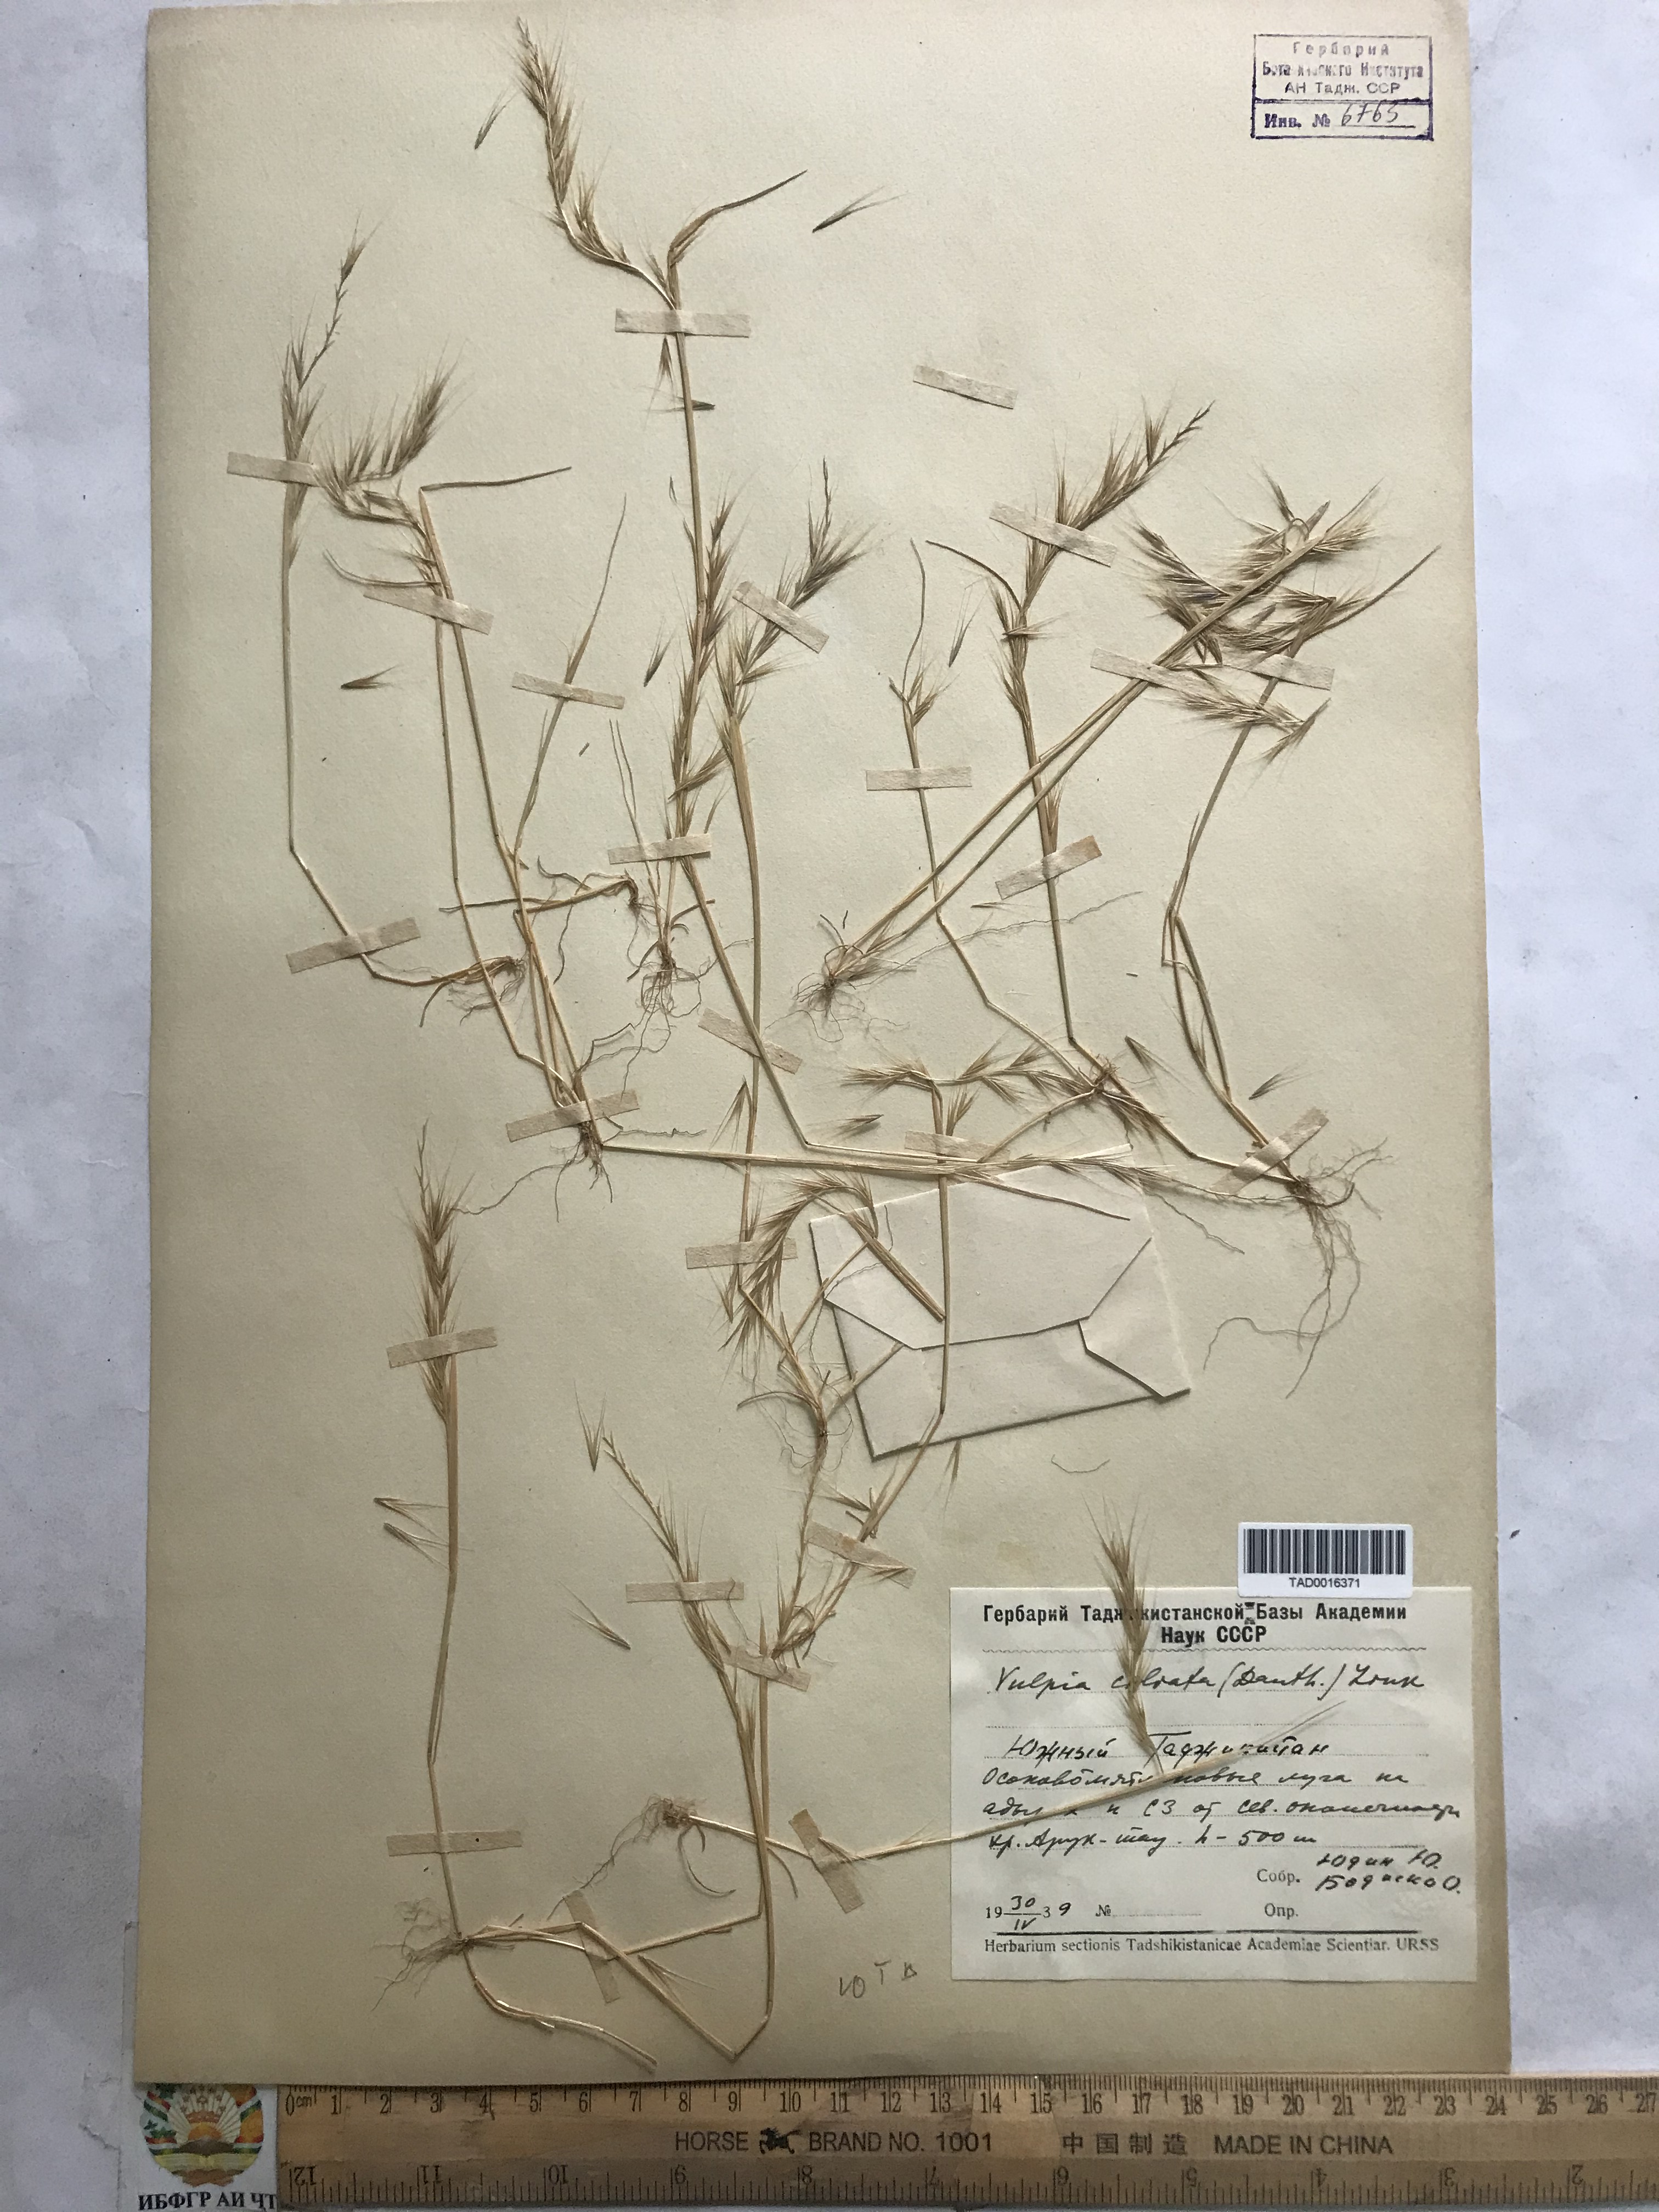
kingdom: Plantae
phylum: Tracheophyta
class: Liliopsida
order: Poales
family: Poaceae
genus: Festuca
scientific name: Festuca ambigua
